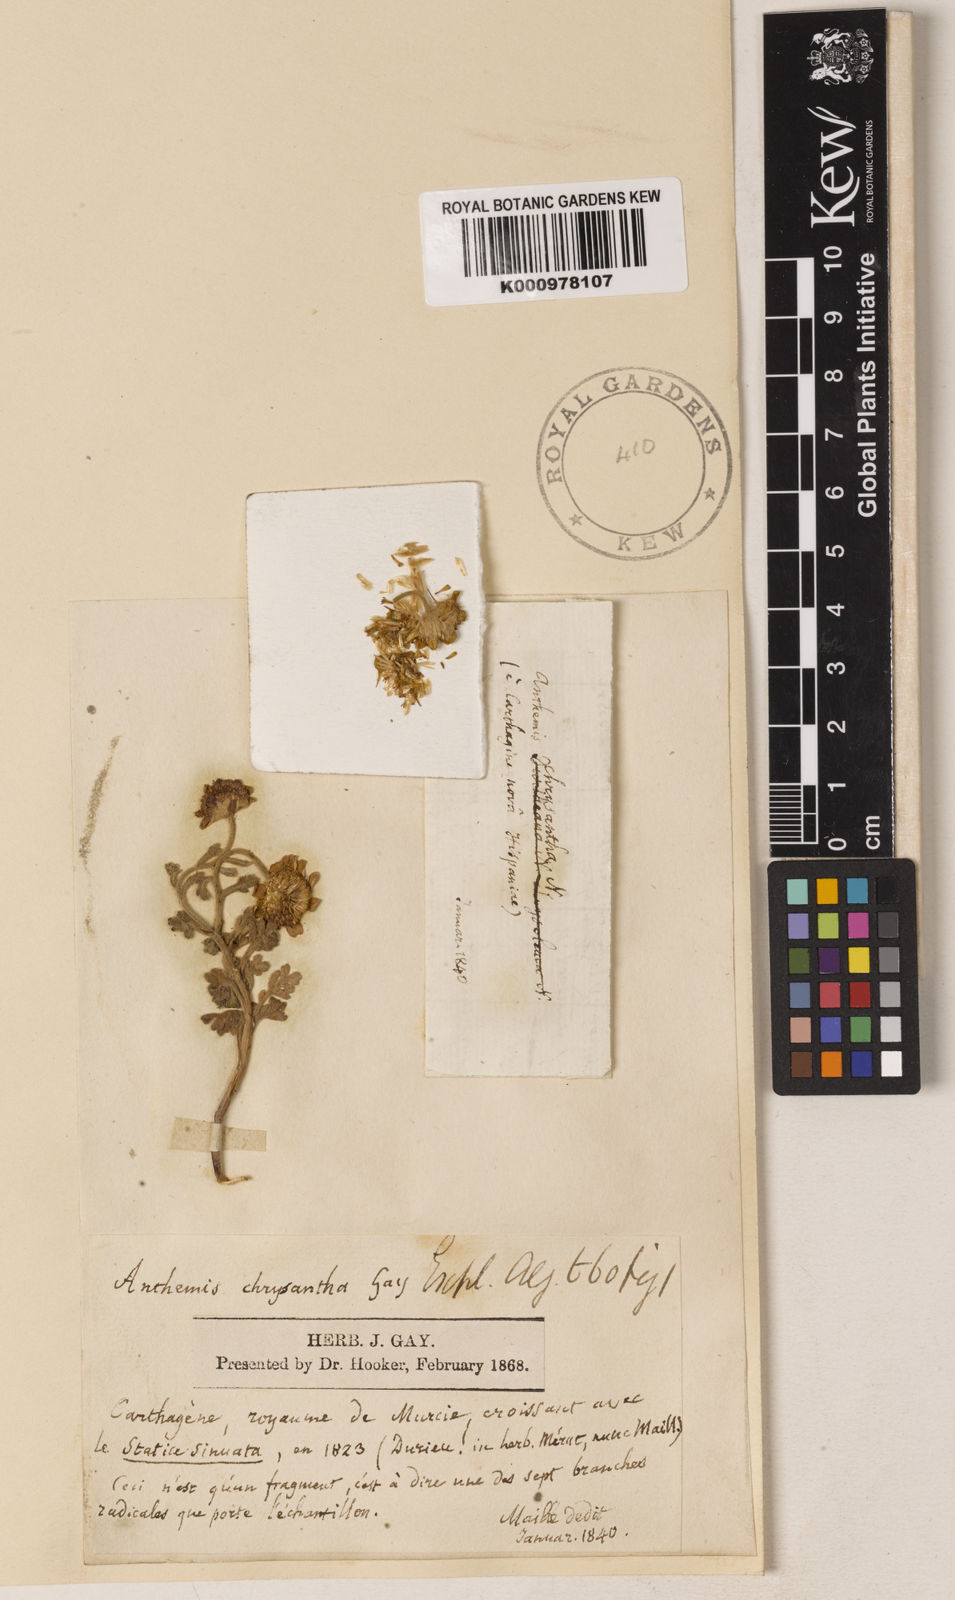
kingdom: Plantae
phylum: Tracheophyta
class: Magnoliopsida
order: Asterales
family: Asteraceae
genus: Anthemis
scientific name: Anthemis
